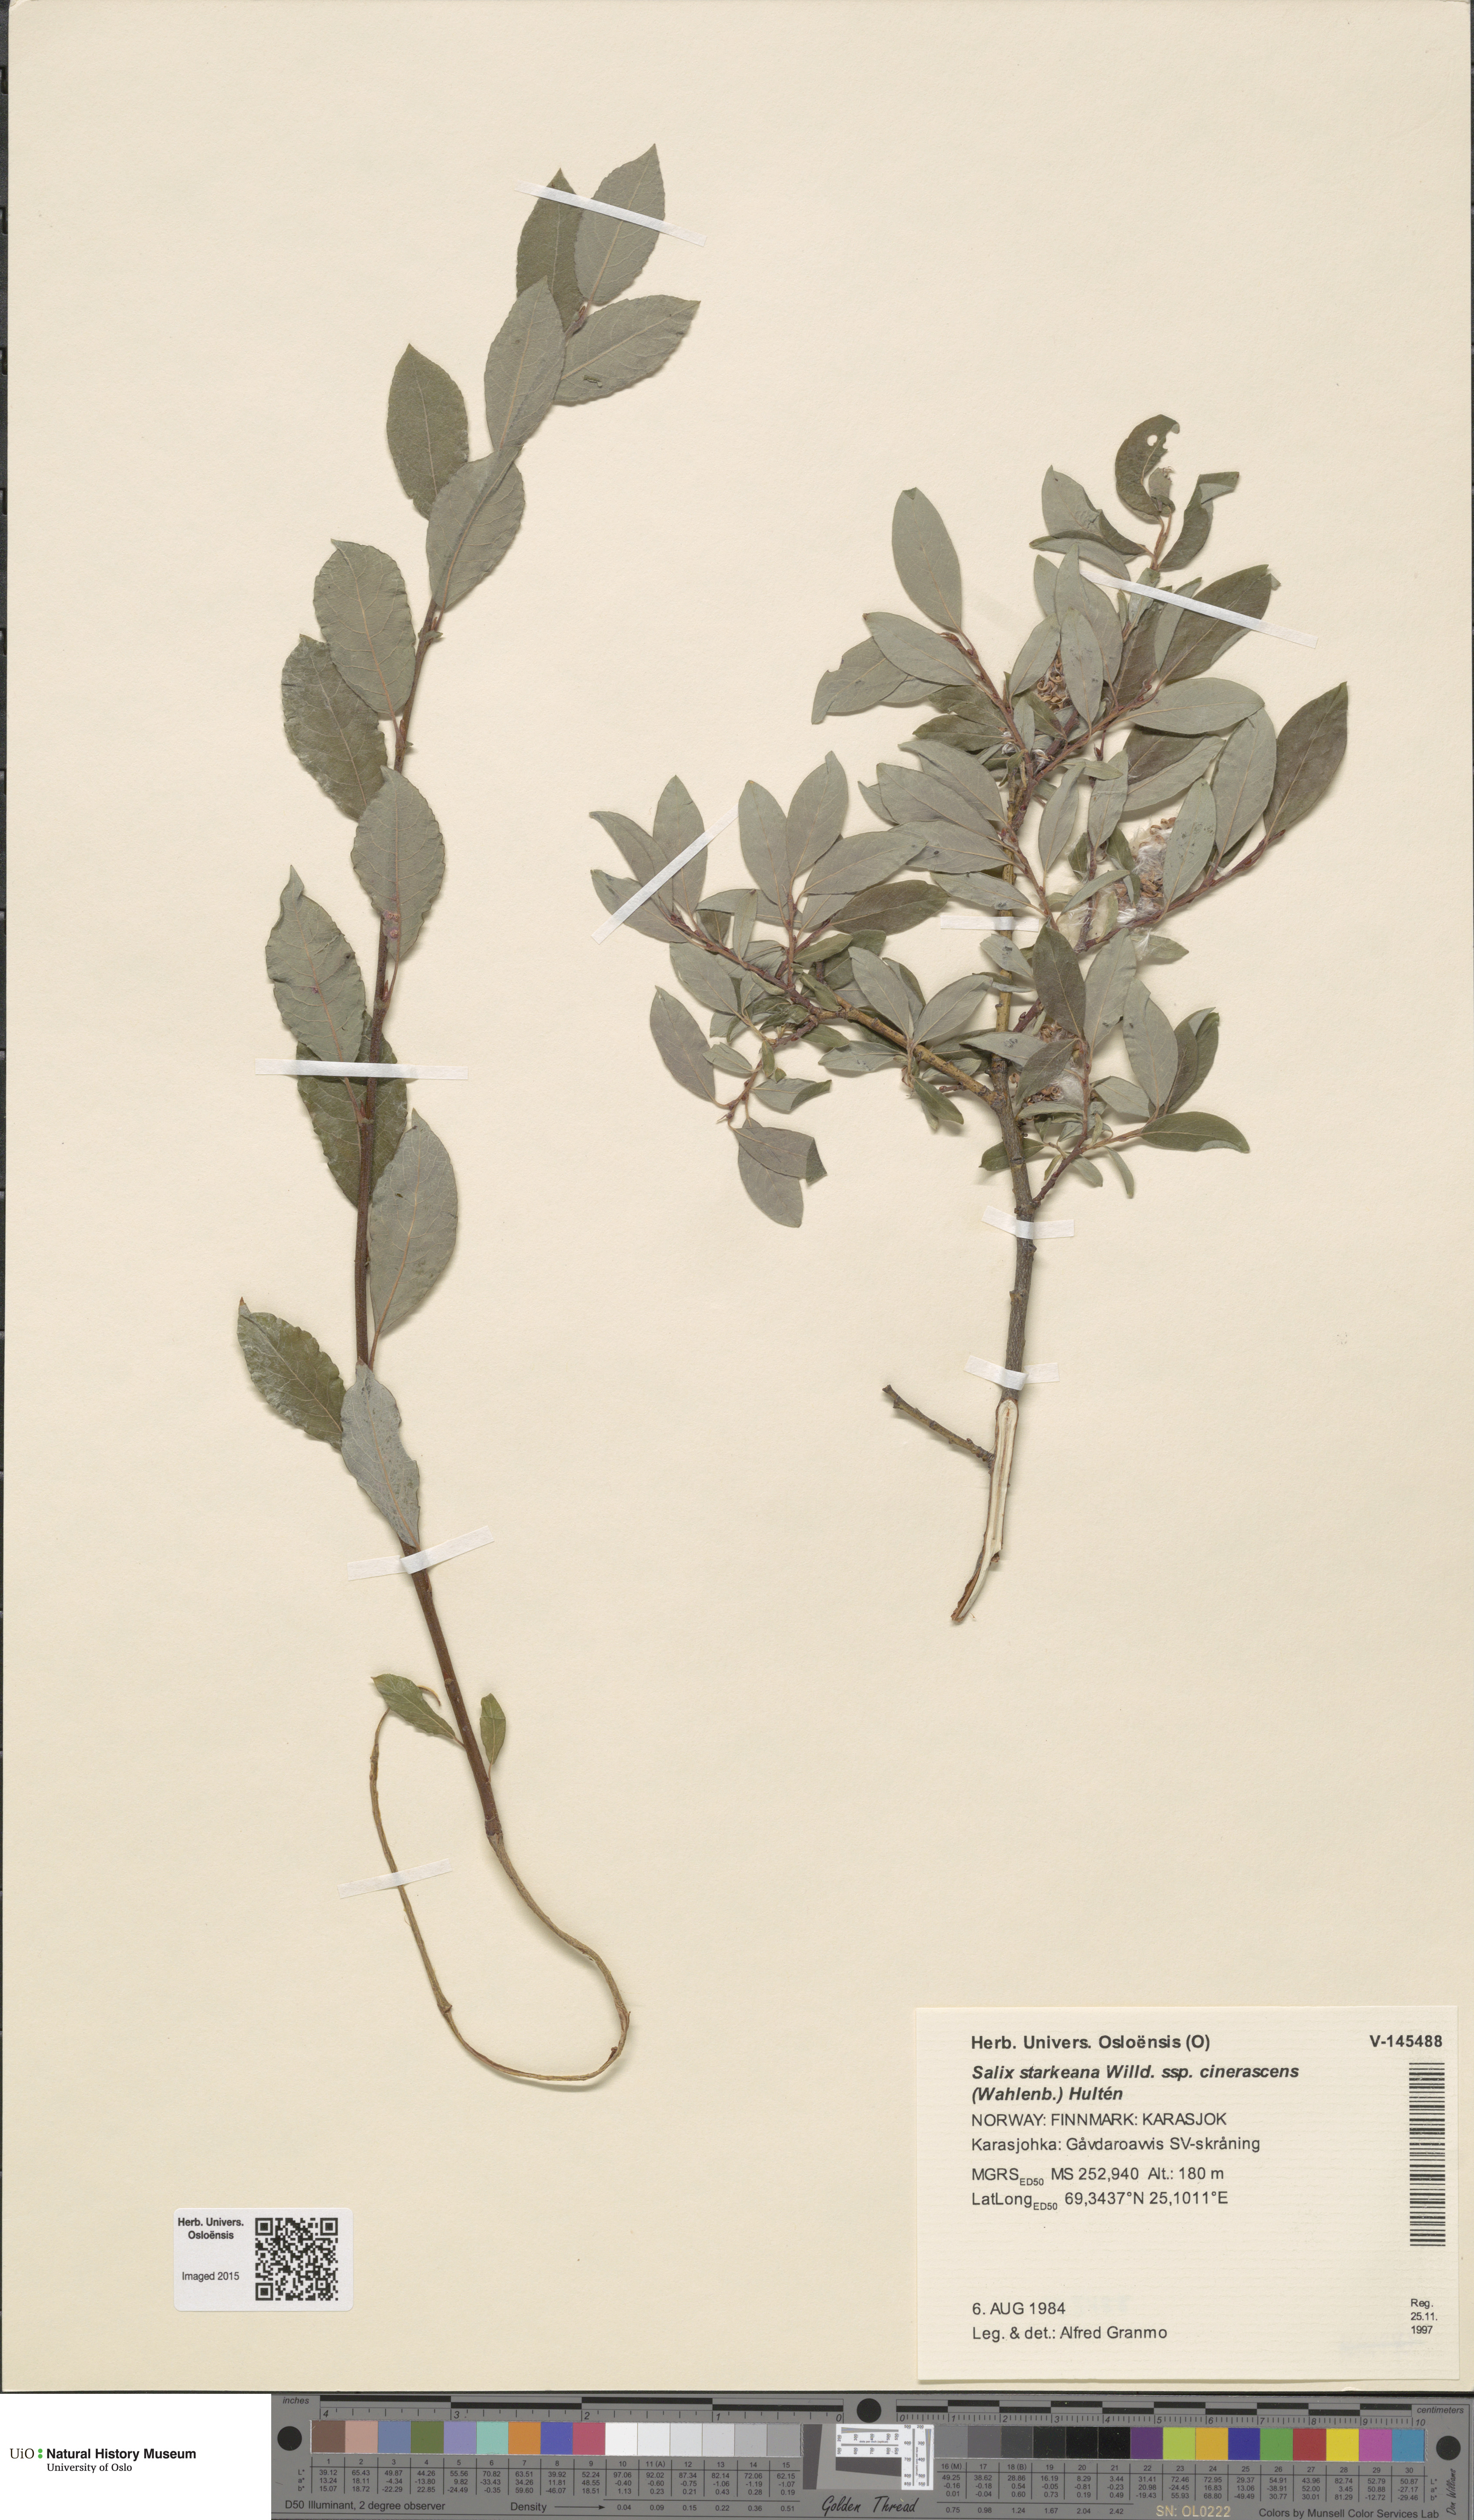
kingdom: Plantae
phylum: Tracheophyta
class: Magnoliopsida
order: Malpighiales
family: Salicaceae
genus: Salix
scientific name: Salix bebbiana
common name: Bebb's willow
